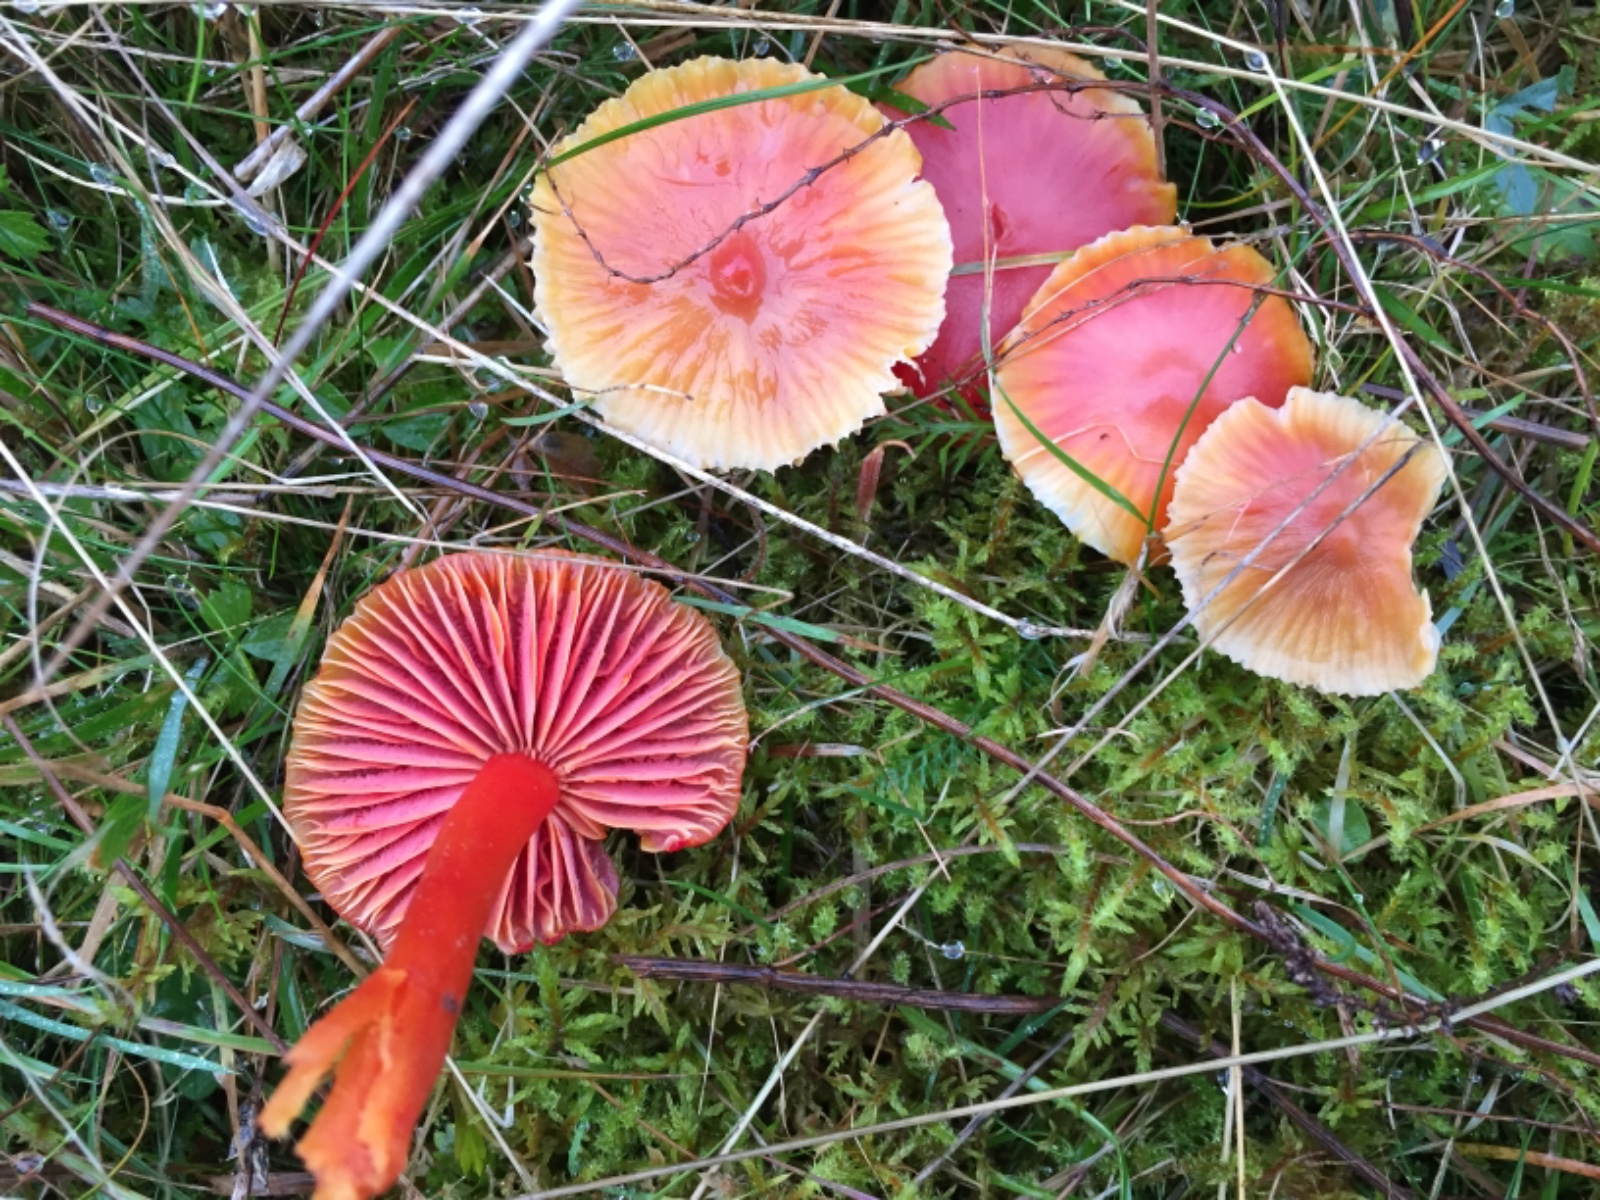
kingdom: Fungi
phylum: Basidiomycota
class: Agaricomycetes
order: Agaricales
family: Hygrophoraceae
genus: Hygrocybe
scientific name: Hygrocybe coccinea
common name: cinnober-vokshat
